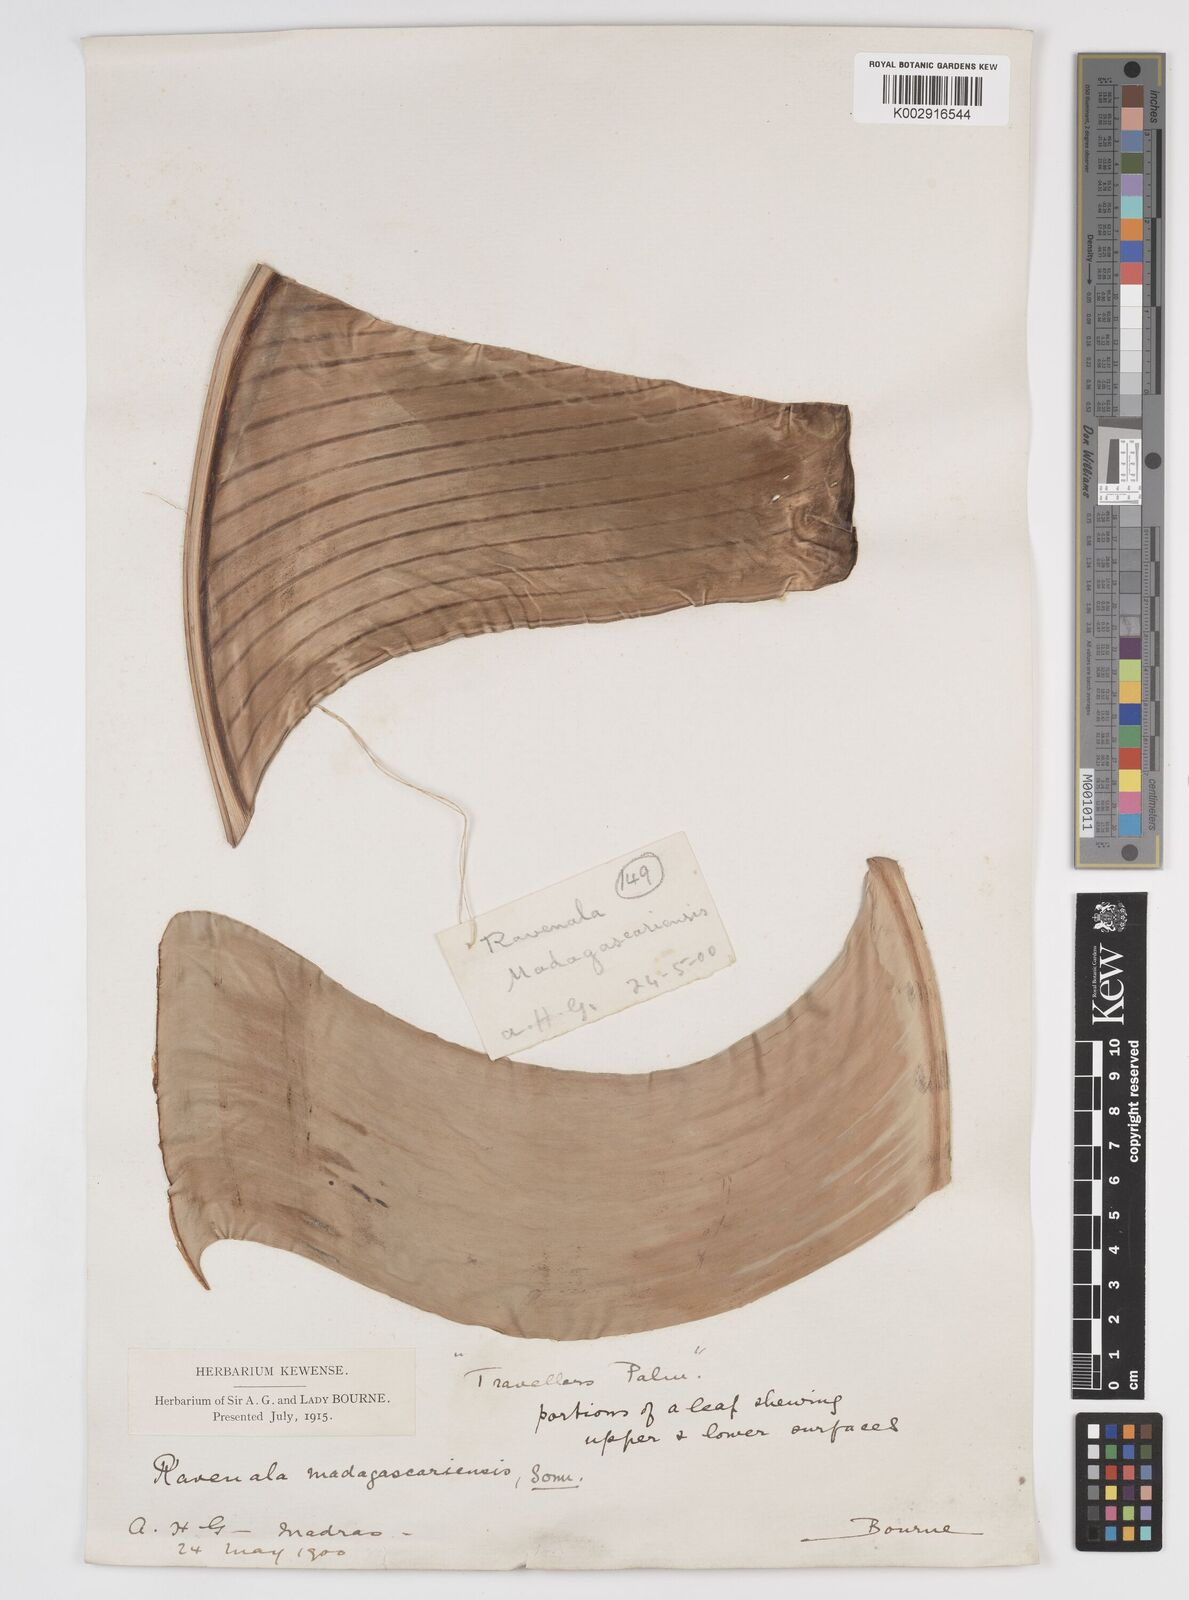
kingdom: Plantae
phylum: Tracheophyta
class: Liliopsida
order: Zingiberales
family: Strelitziaceae
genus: Ravenala
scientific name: Ravenala madagascariensis
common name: Traveler's-palm
